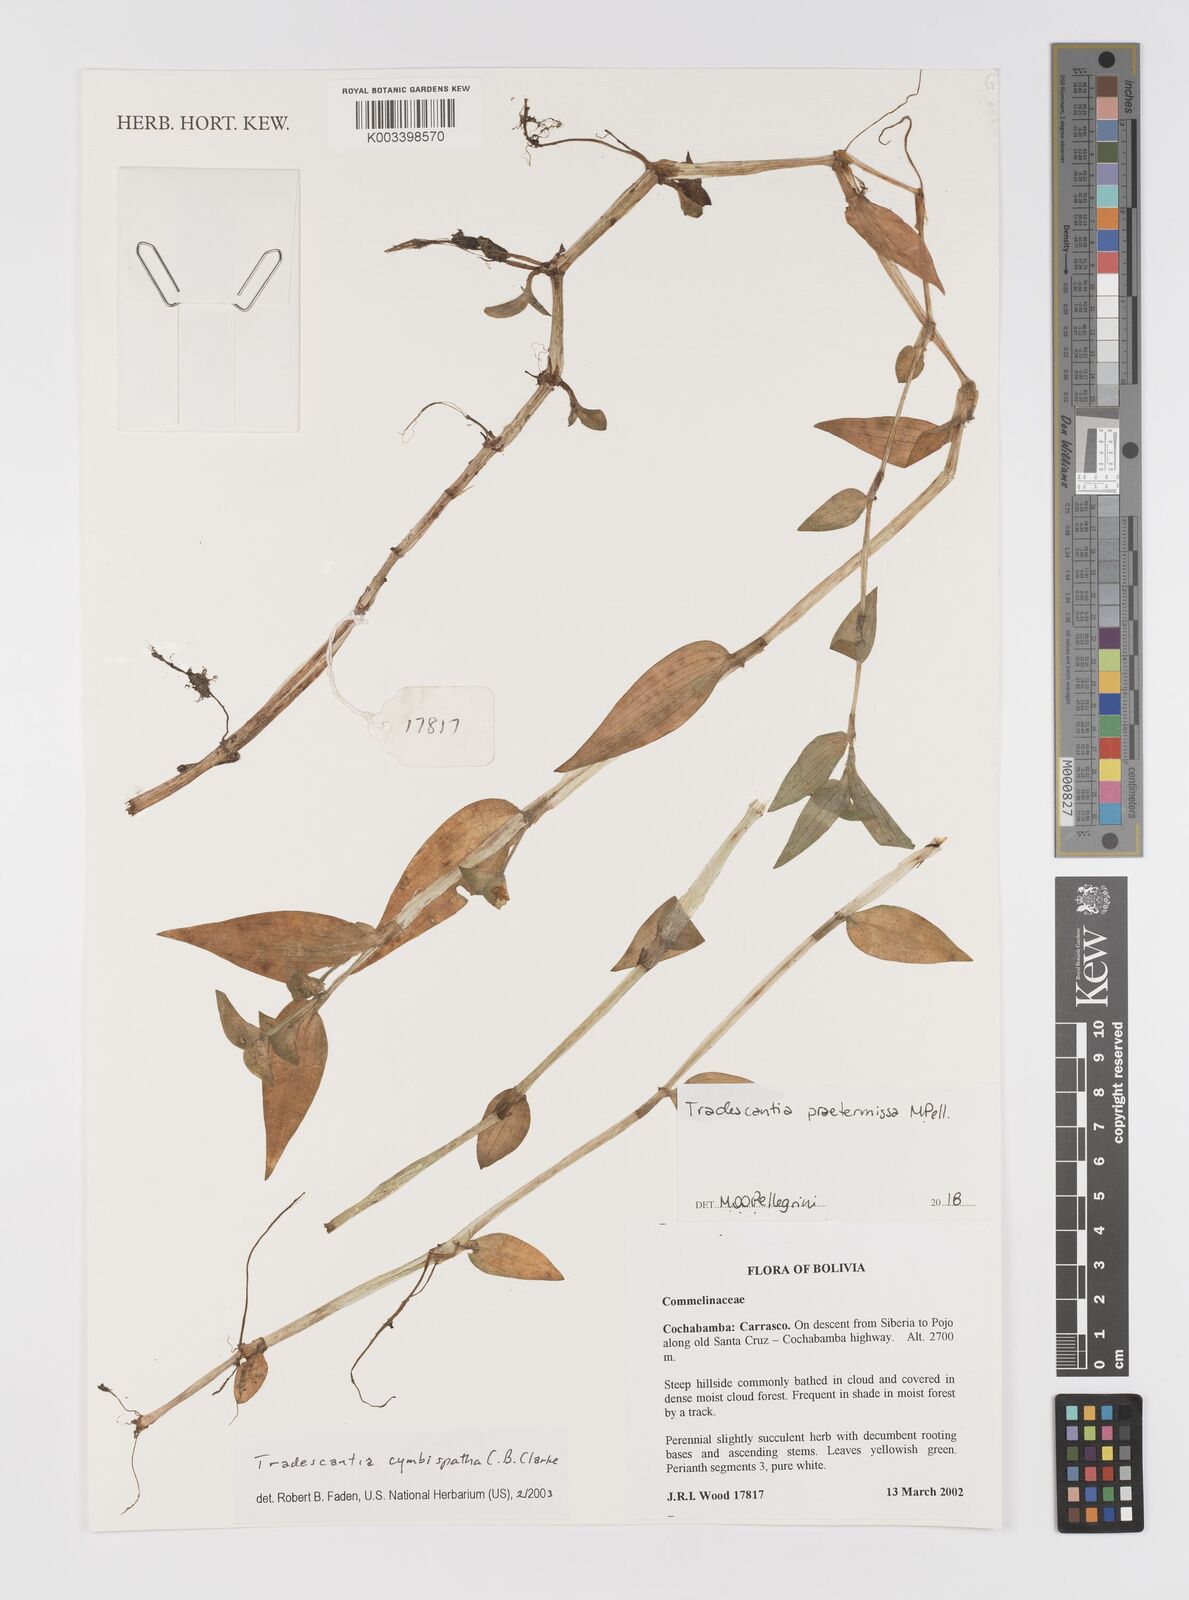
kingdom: Plantae
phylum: Tracheophyta
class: Liliopsida
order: Commelinales
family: Commelinaceae
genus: Tradescantia
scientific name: Tradescantia praetermissa
